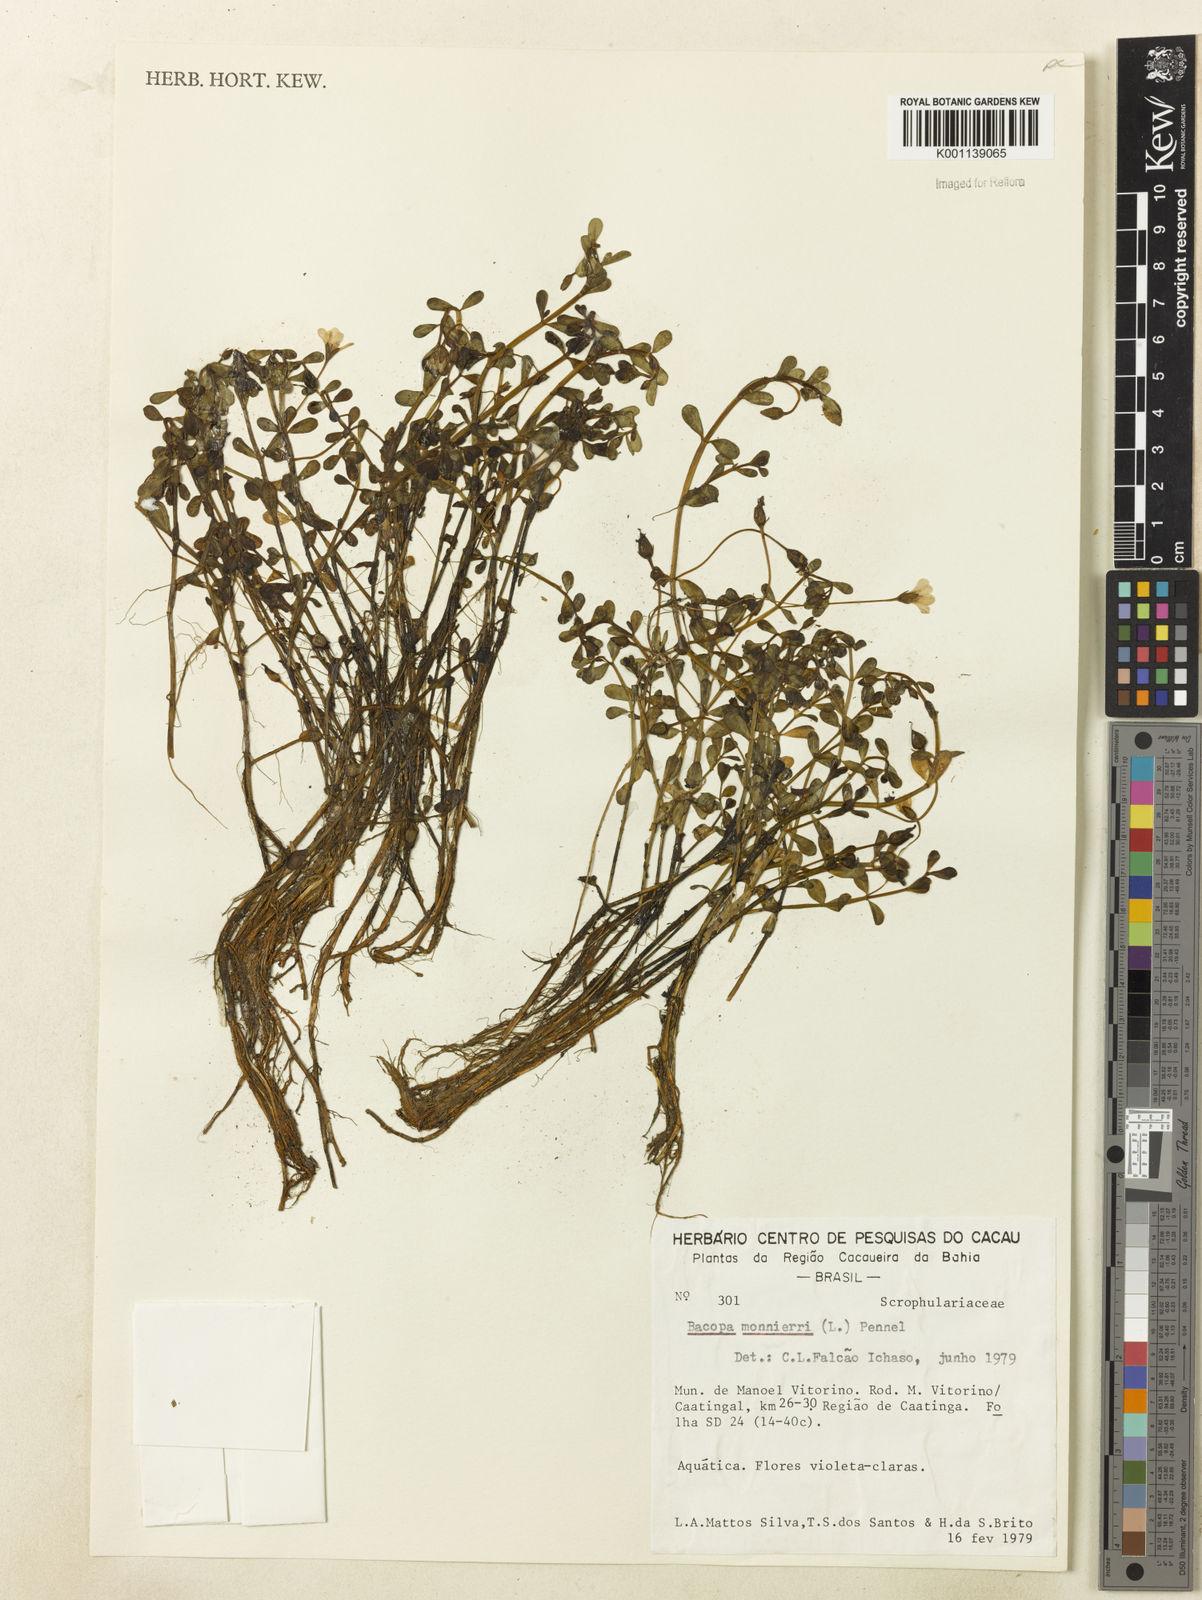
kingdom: Plantae
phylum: Tracheophyta
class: Magnoliopsida
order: Lamiales
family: Plantaginaceae
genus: Bacopa
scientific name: Bacopa
